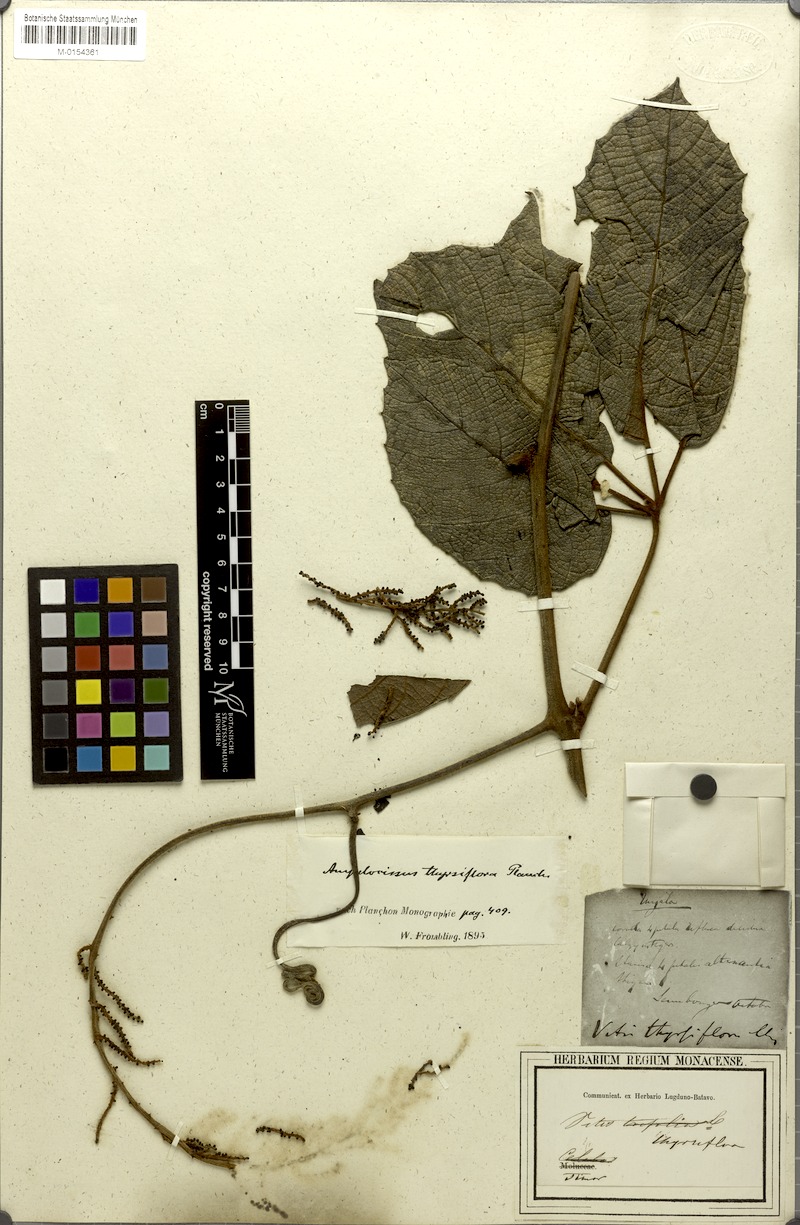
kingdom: Plantae
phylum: Tracheophyta
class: Magnoliopsida
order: Vitales
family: Vitaceae
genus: Ampelocissus
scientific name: Ampelocissus thyrsiflora
